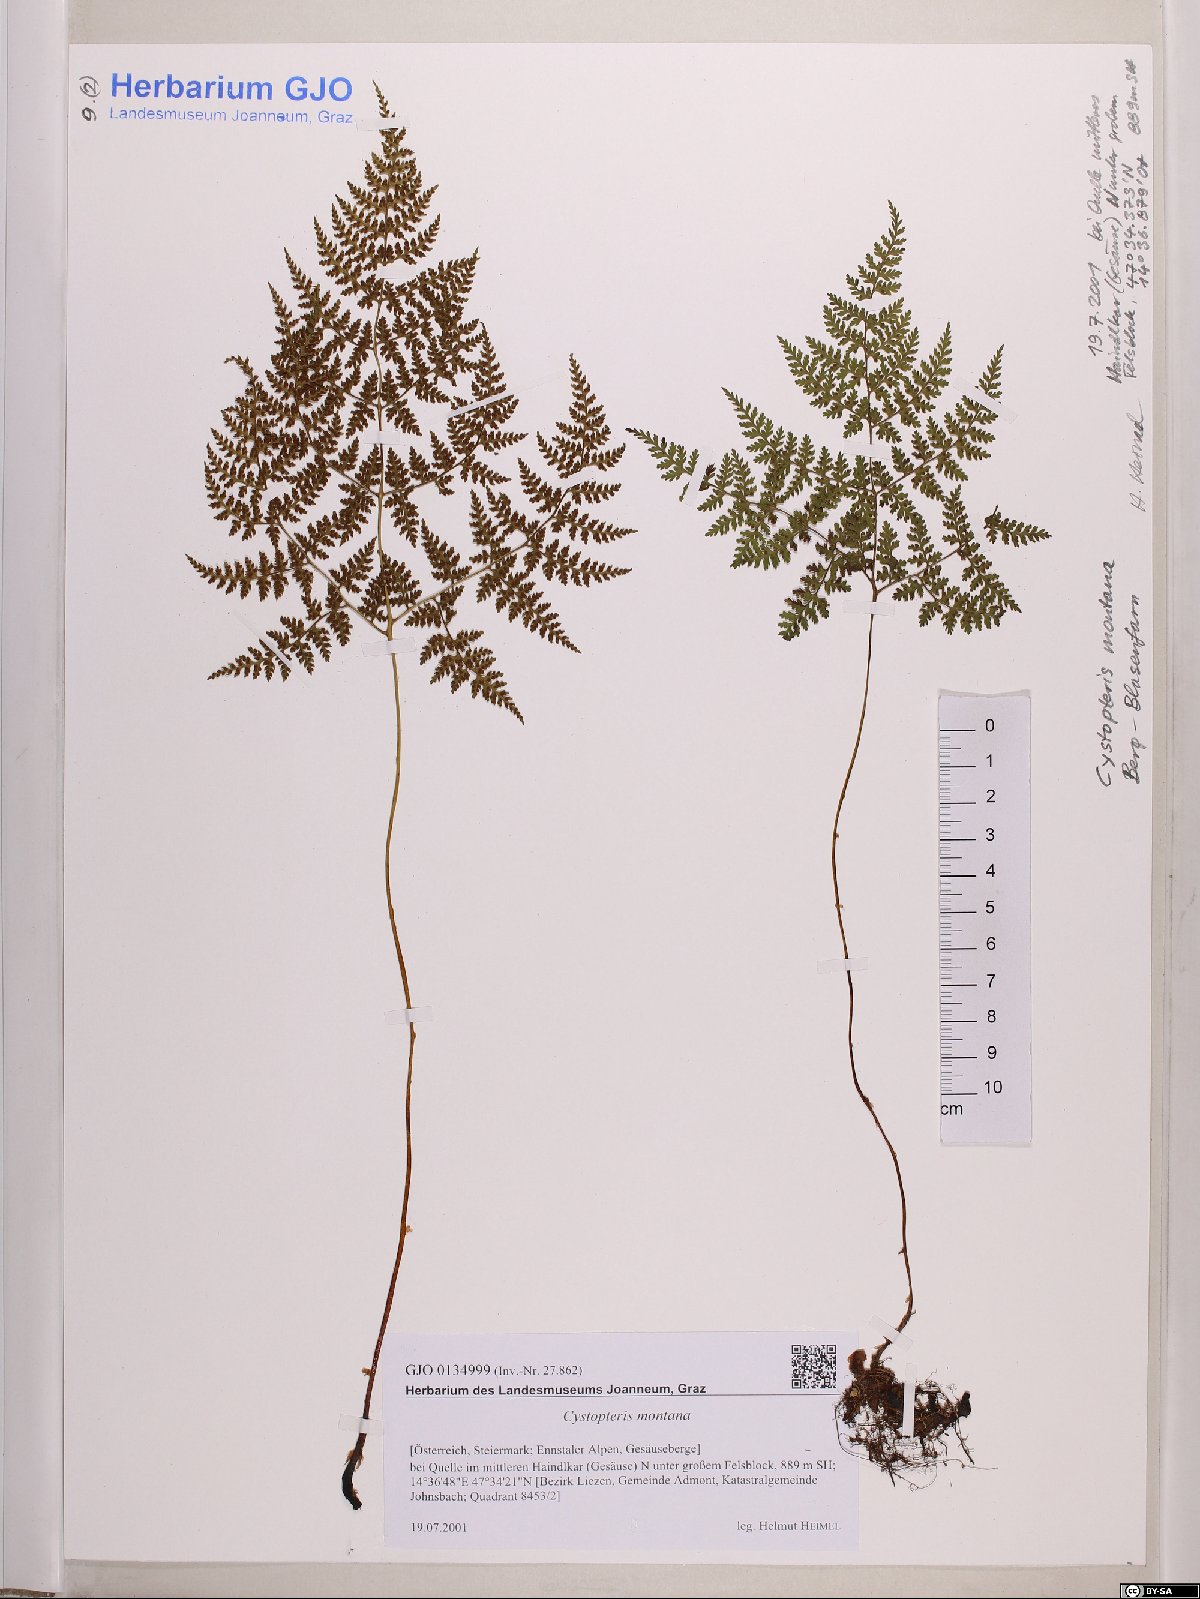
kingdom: Plantae
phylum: Tracheophyta
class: Polypodiopsida
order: Polypodiales
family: Cystopteridaceae
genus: Cystopteris
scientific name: Cystopteris montana
